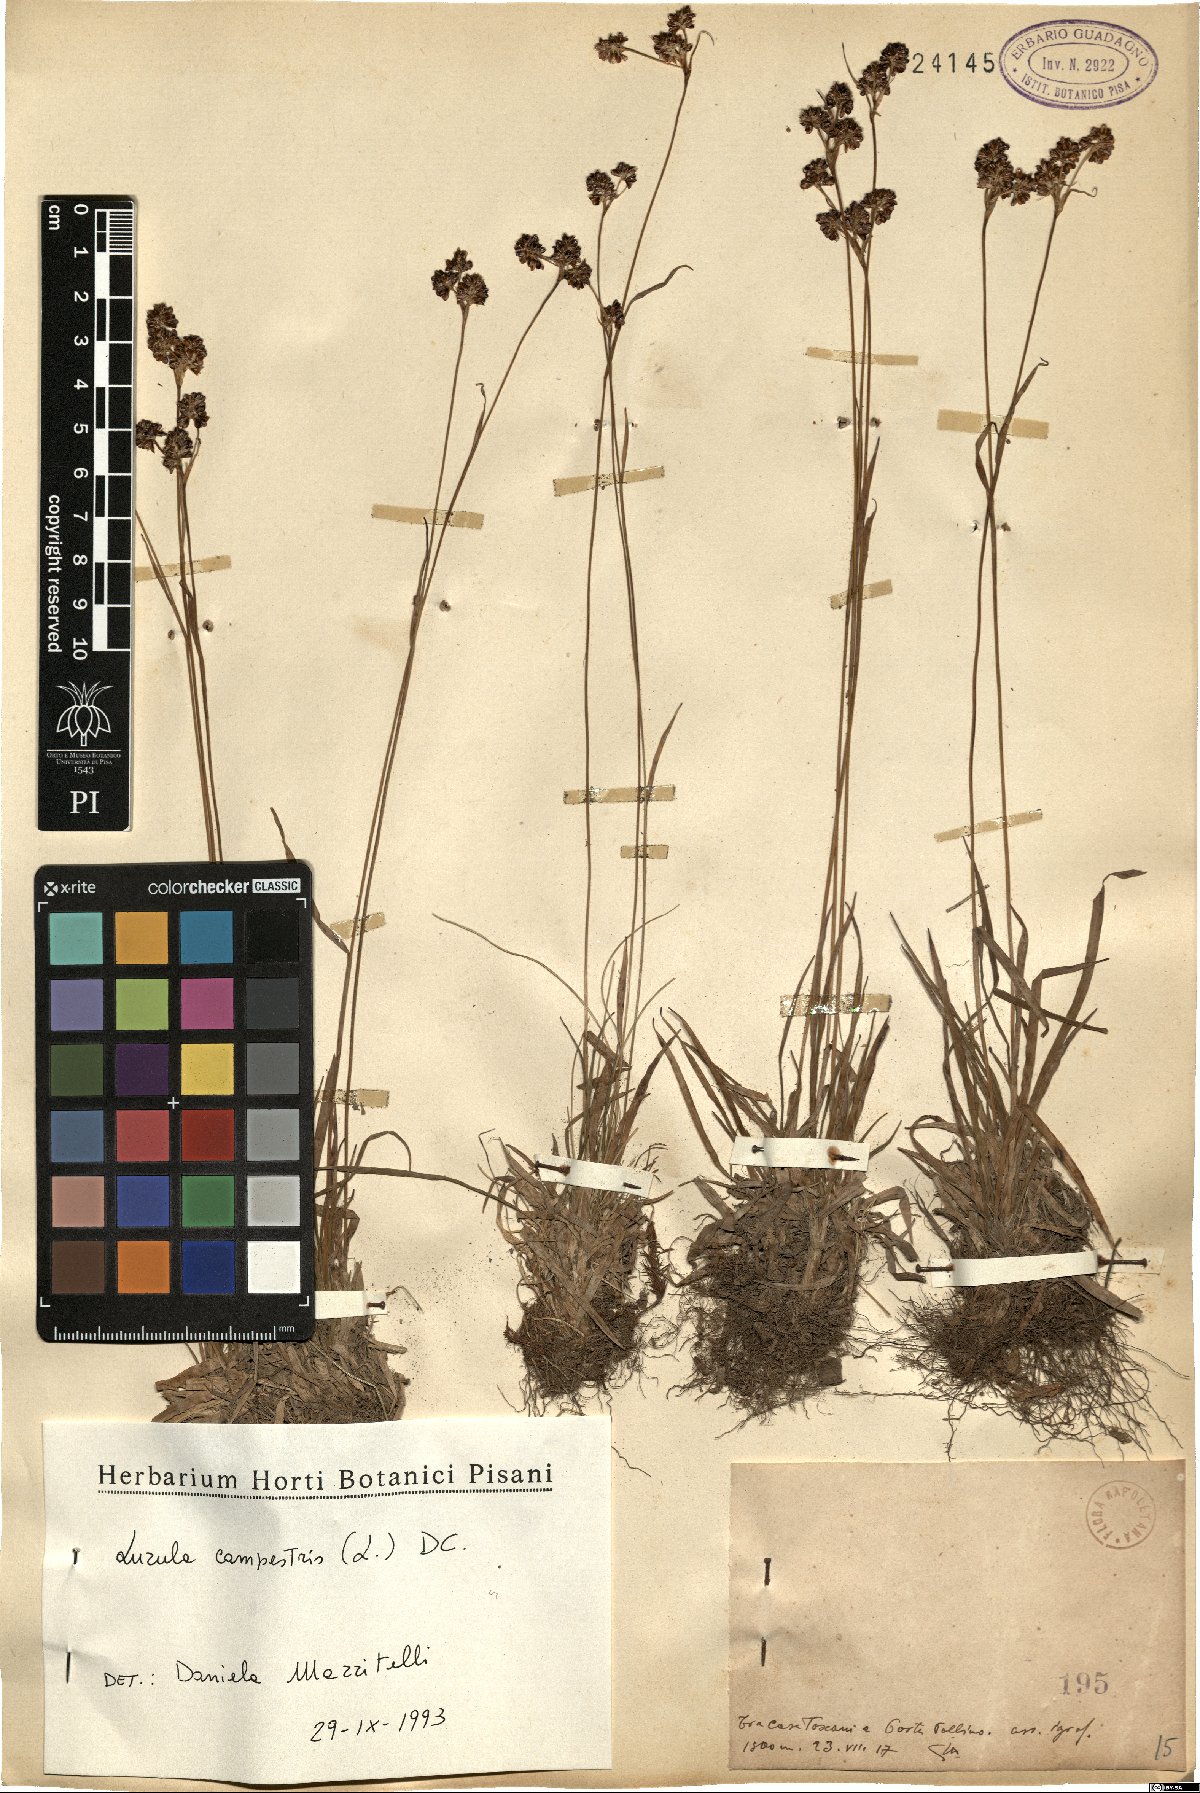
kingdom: Plantae
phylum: Tracheophyta
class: Liliopsida
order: Poales
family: Juncaceae
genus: Luzula
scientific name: Luzula campestris
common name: Field wood-rush
